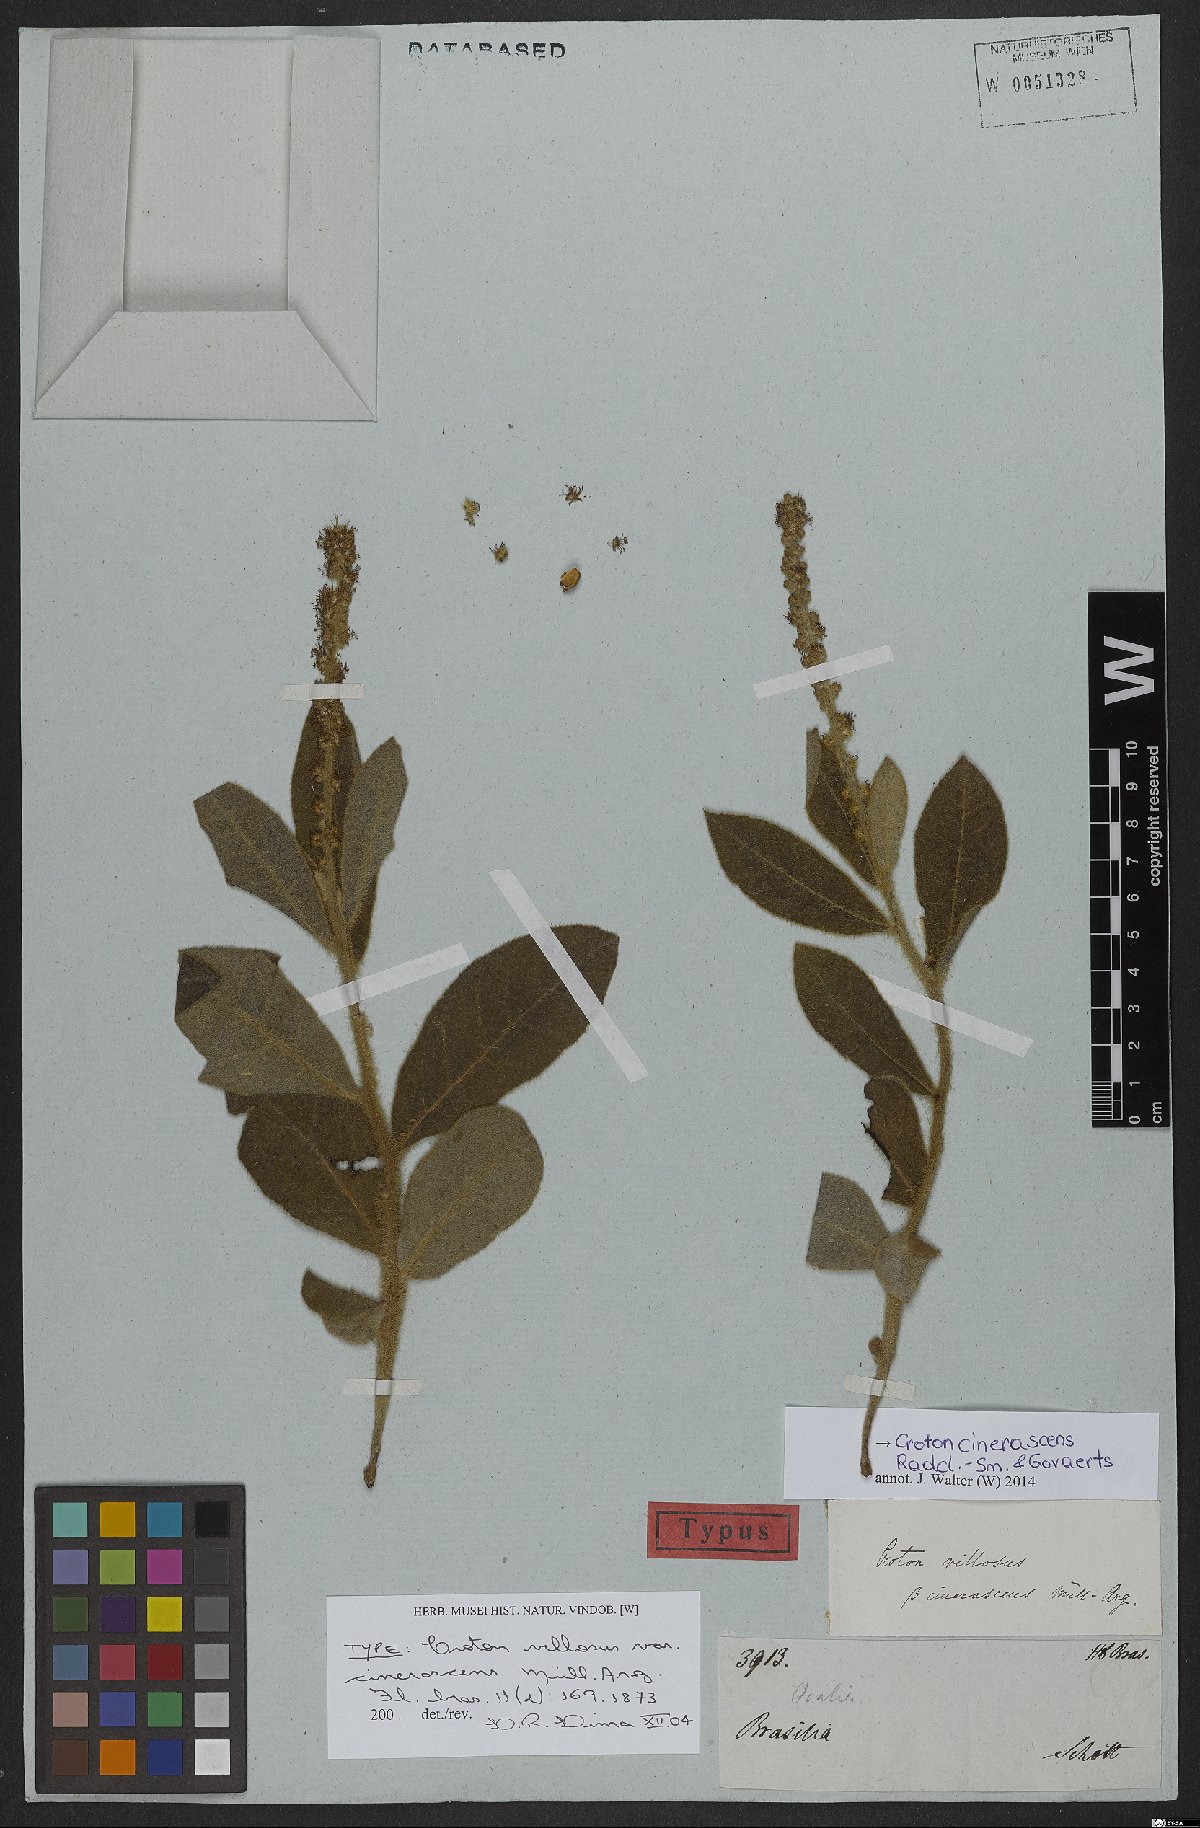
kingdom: Plantae
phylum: Tracheophyta
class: Magnoliopsida
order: Malpighiales
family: Euphorbiaceae
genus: Croton
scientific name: Croton cinerascens
